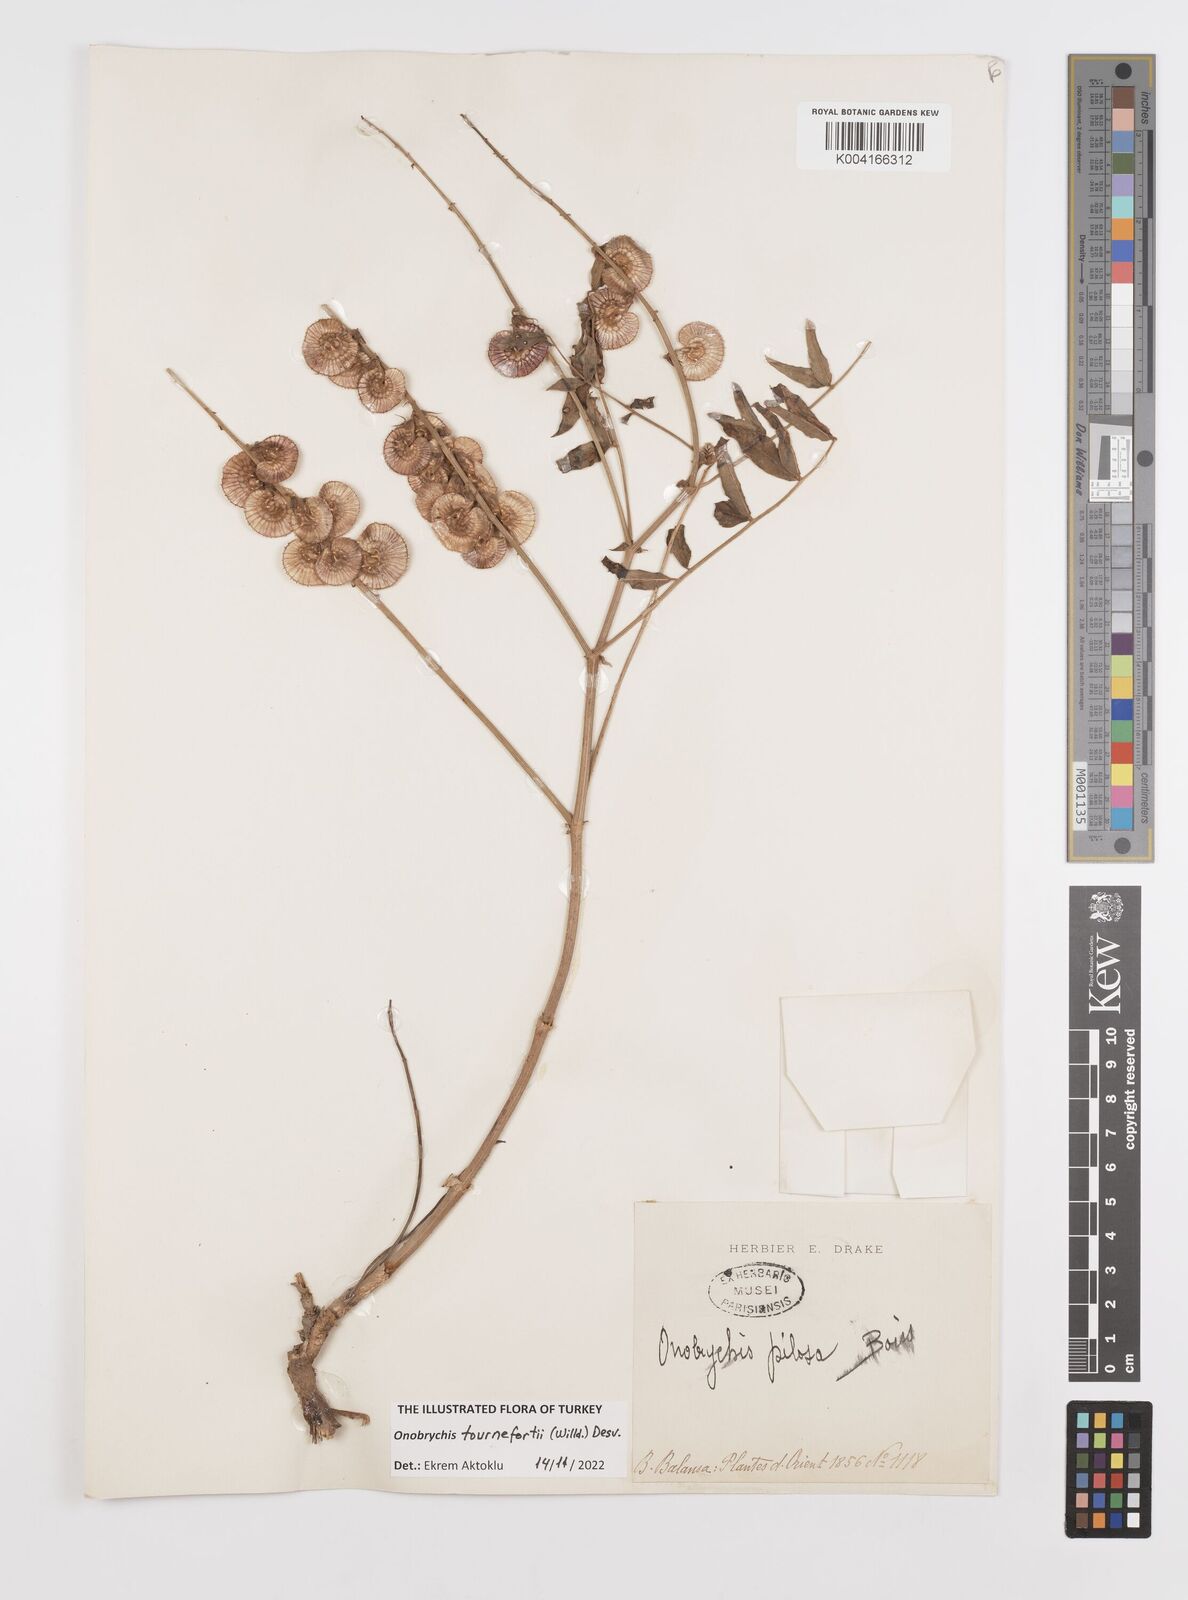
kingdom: Plantae
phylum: Tracheophyta
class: Magnoliopsida
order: Fabales
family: Fabaceae
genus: Onobrychis
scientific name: Onobrychis tournefortii
